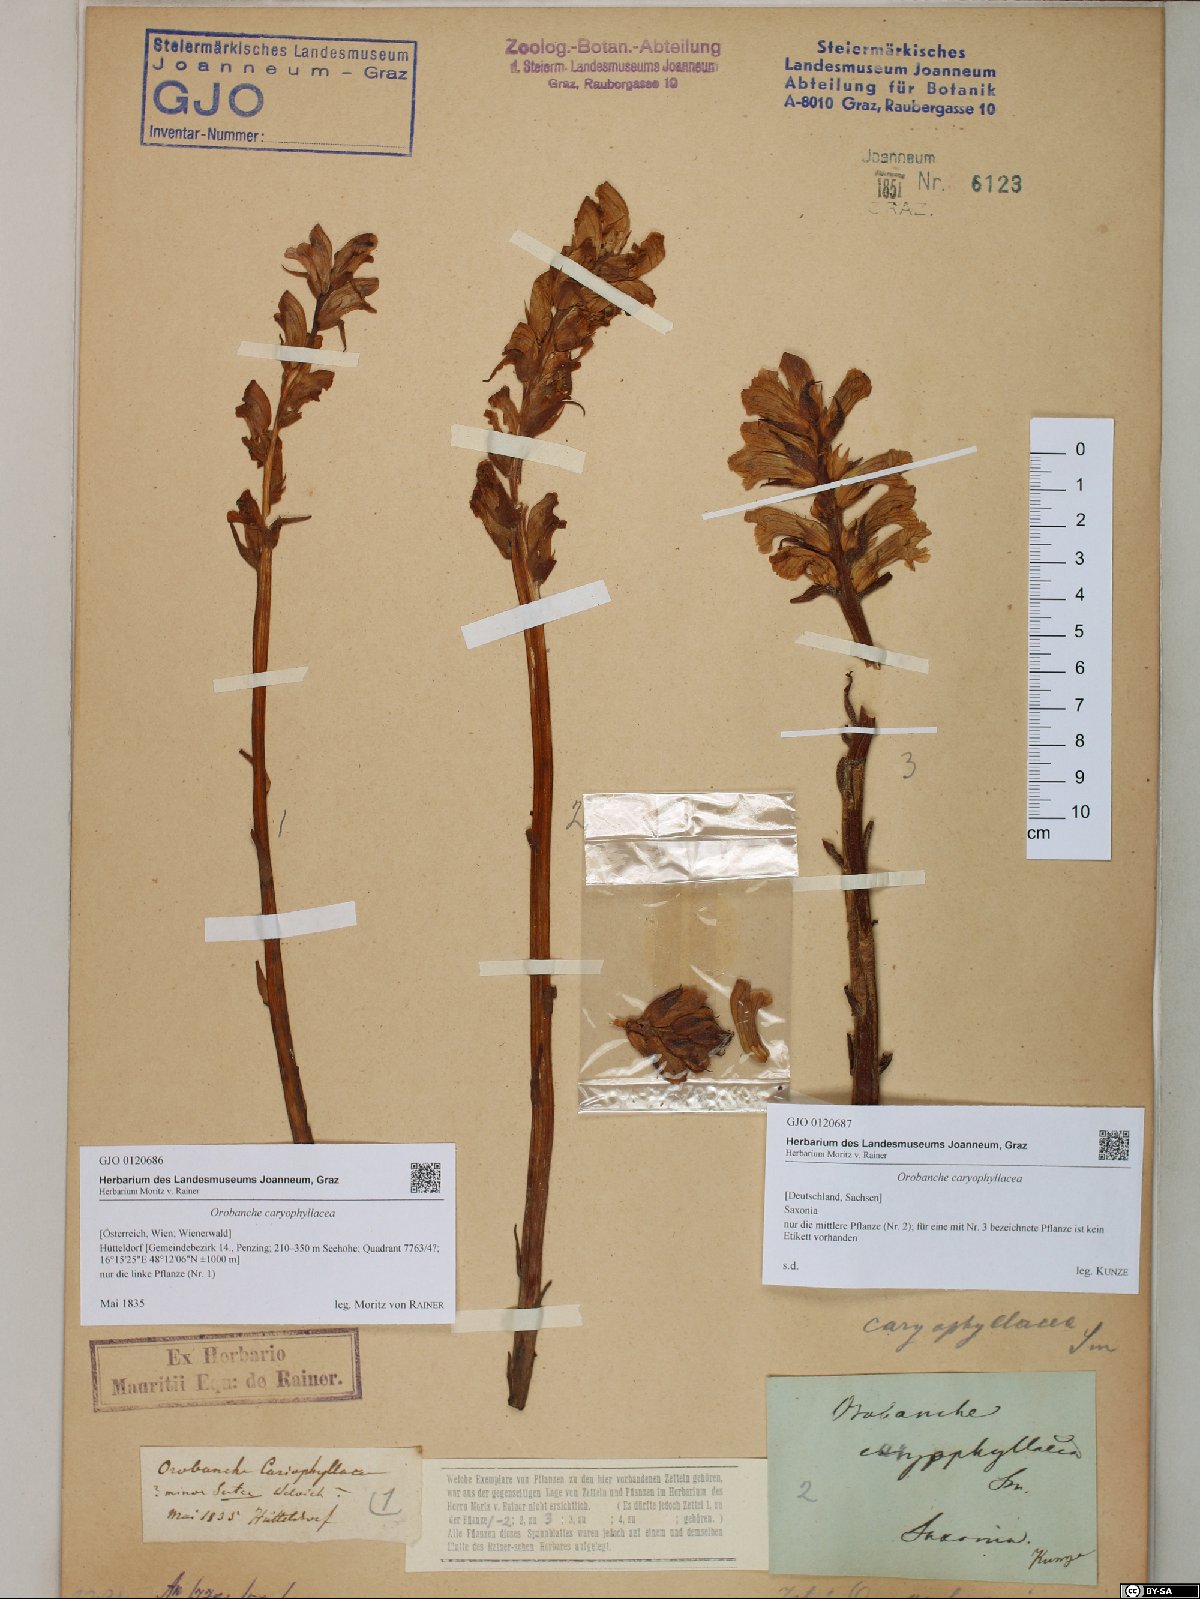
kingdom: Plantae
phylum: Tracheophyta
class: Magnoliopsida
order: Lamiales
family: Orobanchaceae
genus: Orobanche
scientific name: Orobanche caryophyllacea
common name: Bedstraw broomrape
